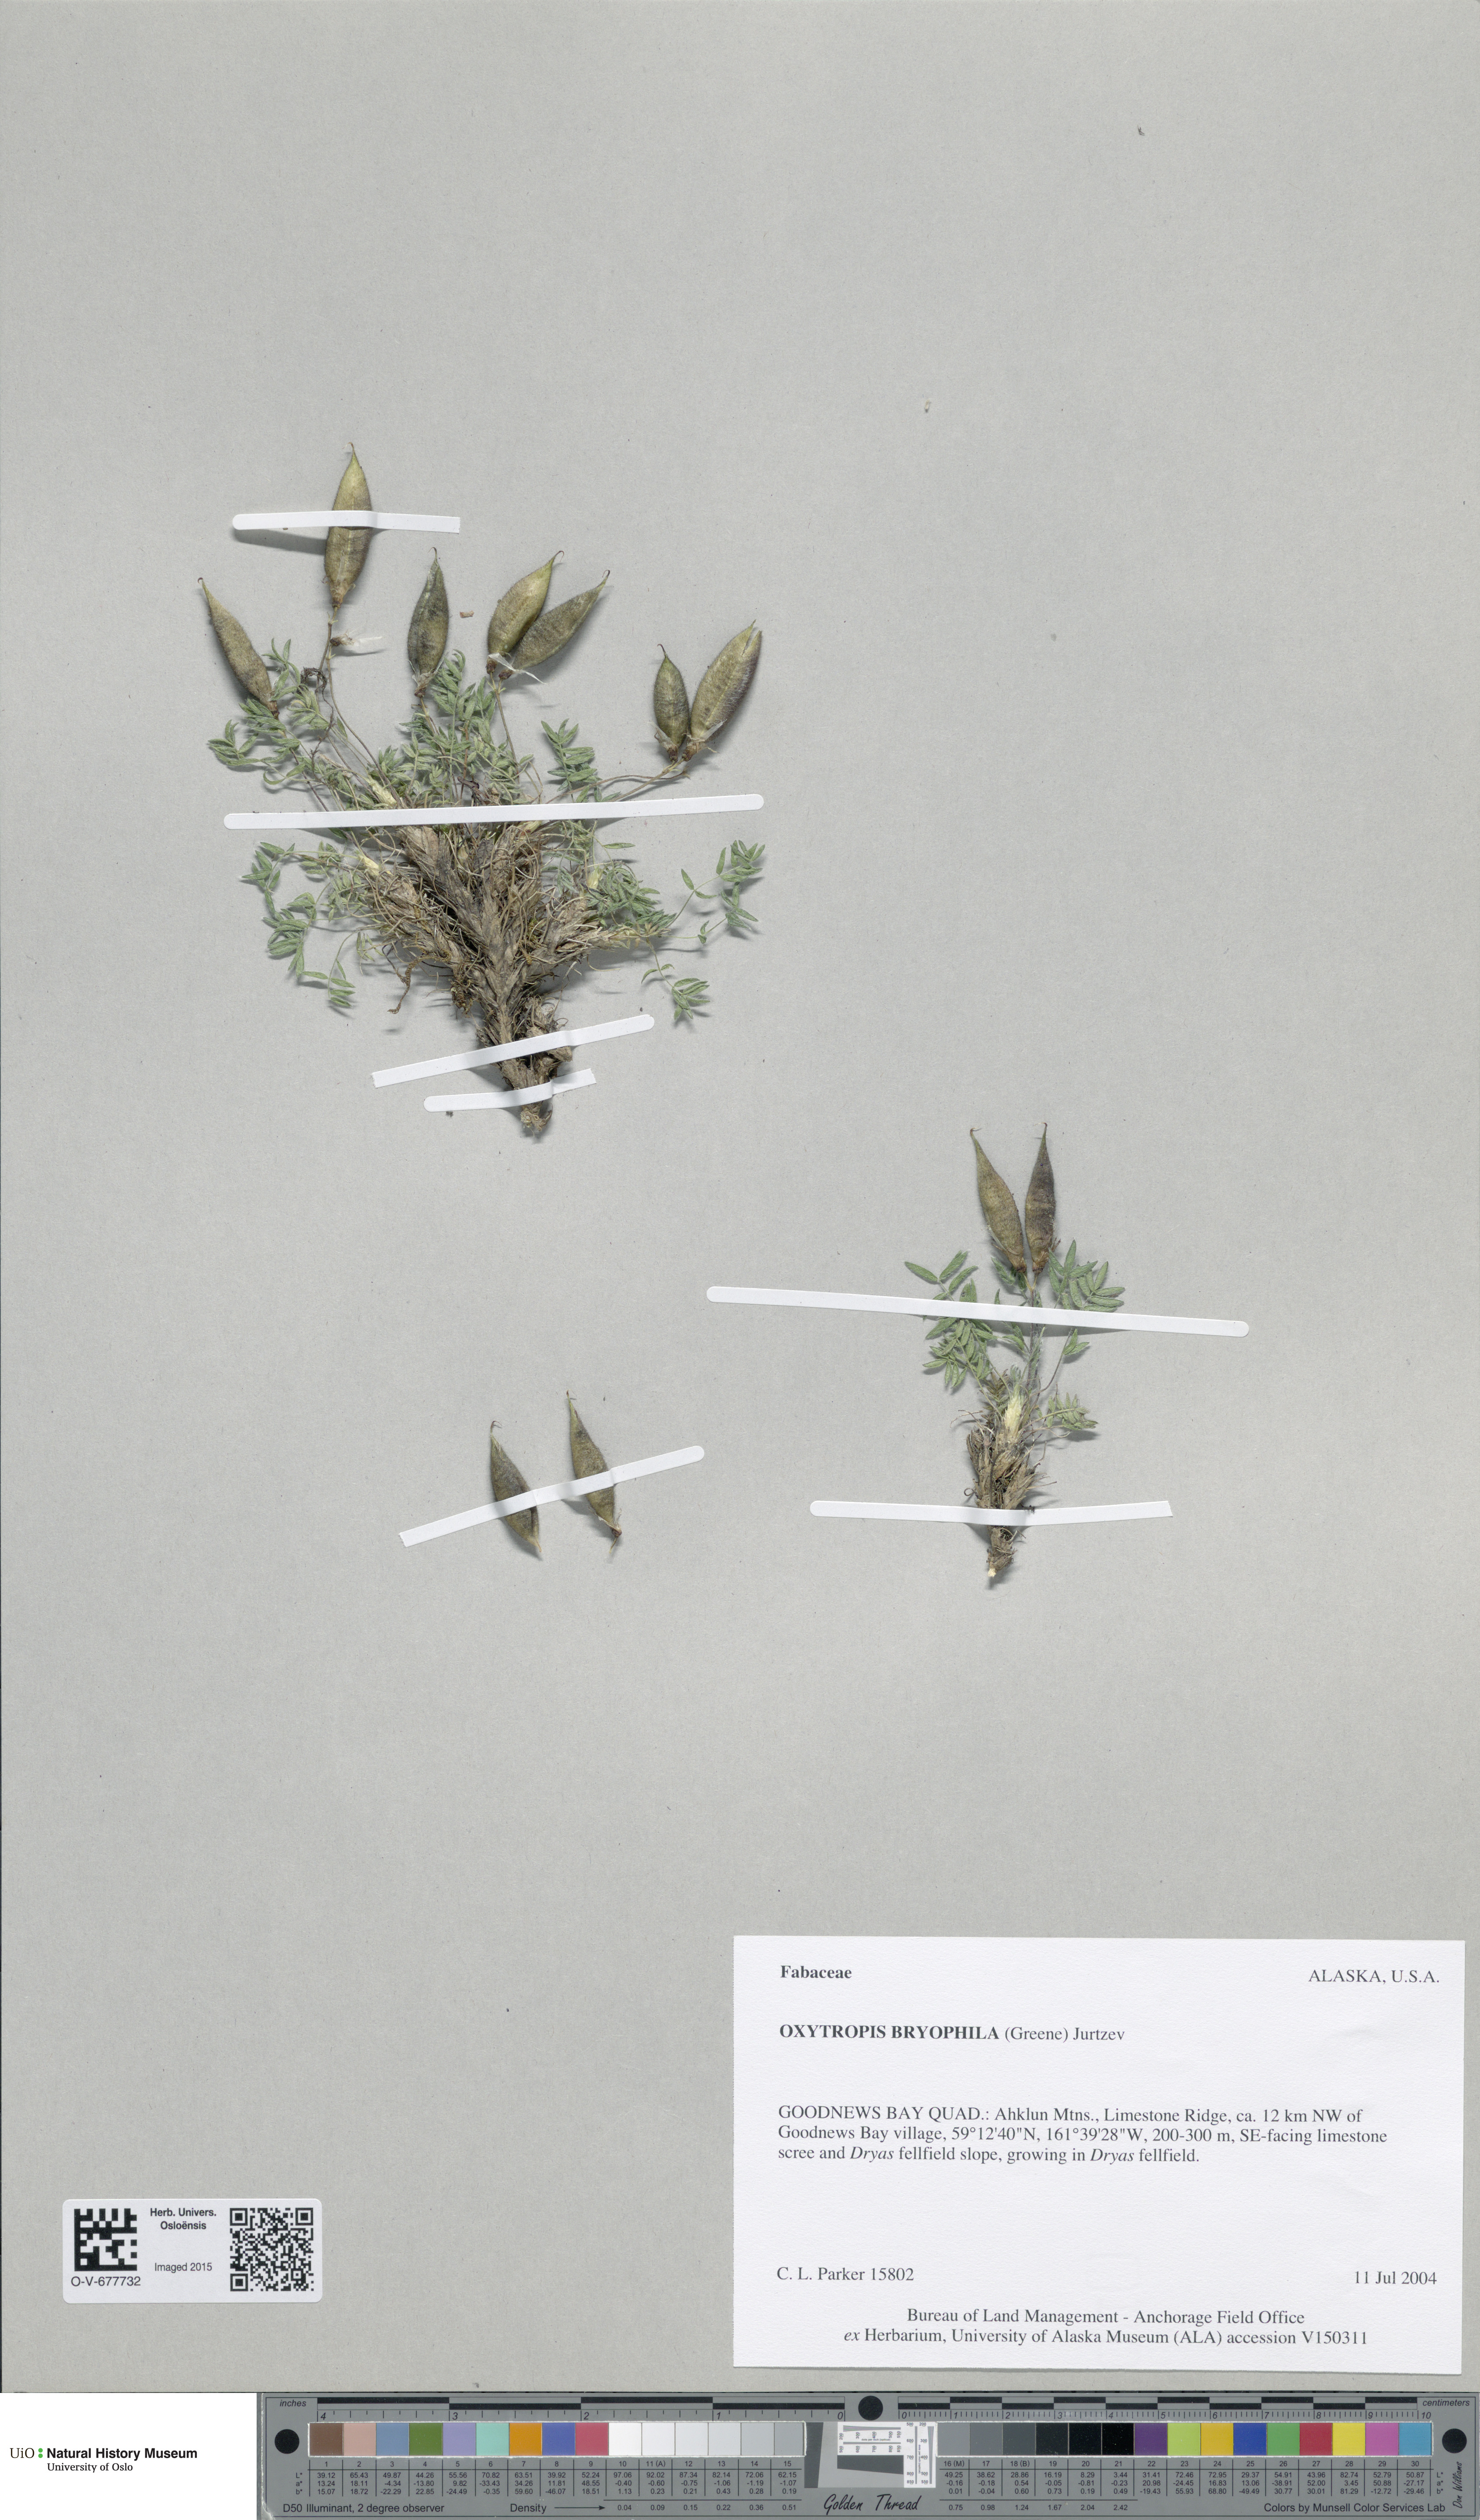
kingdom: Plantae
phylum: Tracheophyta
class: Magnoliopsida
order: Fabales
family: Fabaceae
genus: Oxytropis
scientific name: Oxytropis bryophila
